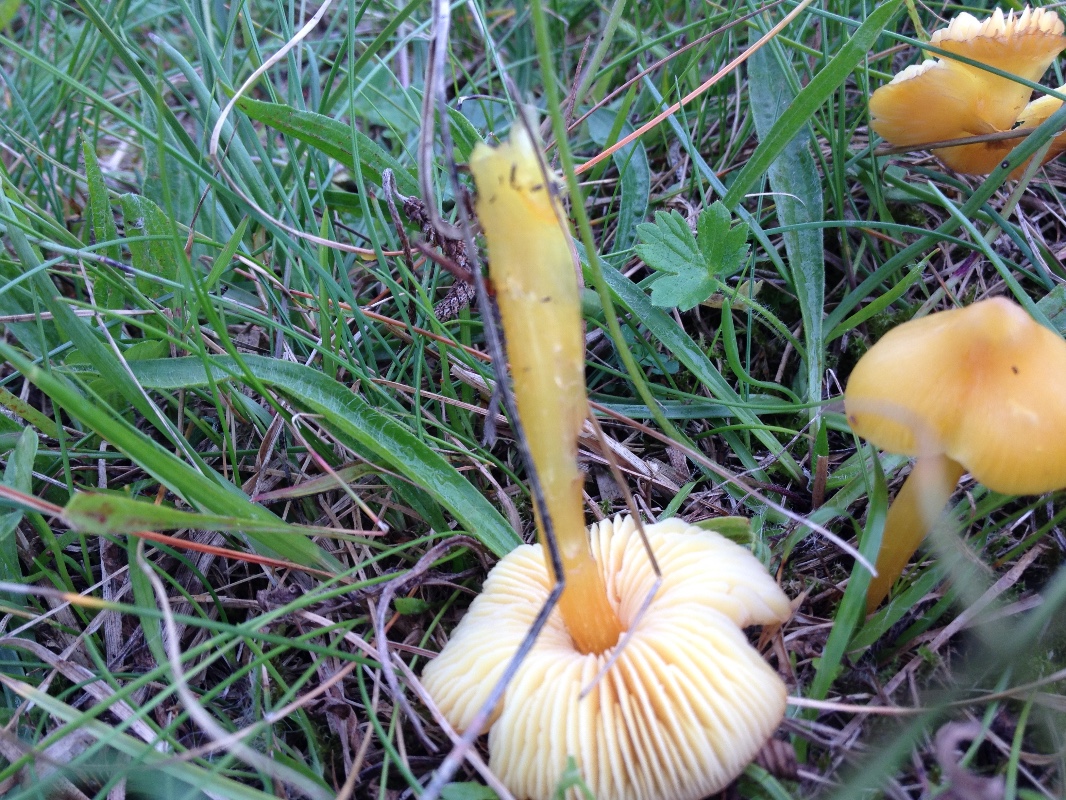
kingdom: Fungi
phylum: Basidiomycota
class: Agaricomycetes
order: Agaricales
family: Hygrophoraceae
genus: Hygrocybe
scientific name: Hygrocybe acutoconica
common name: spidspuklet vokshat
